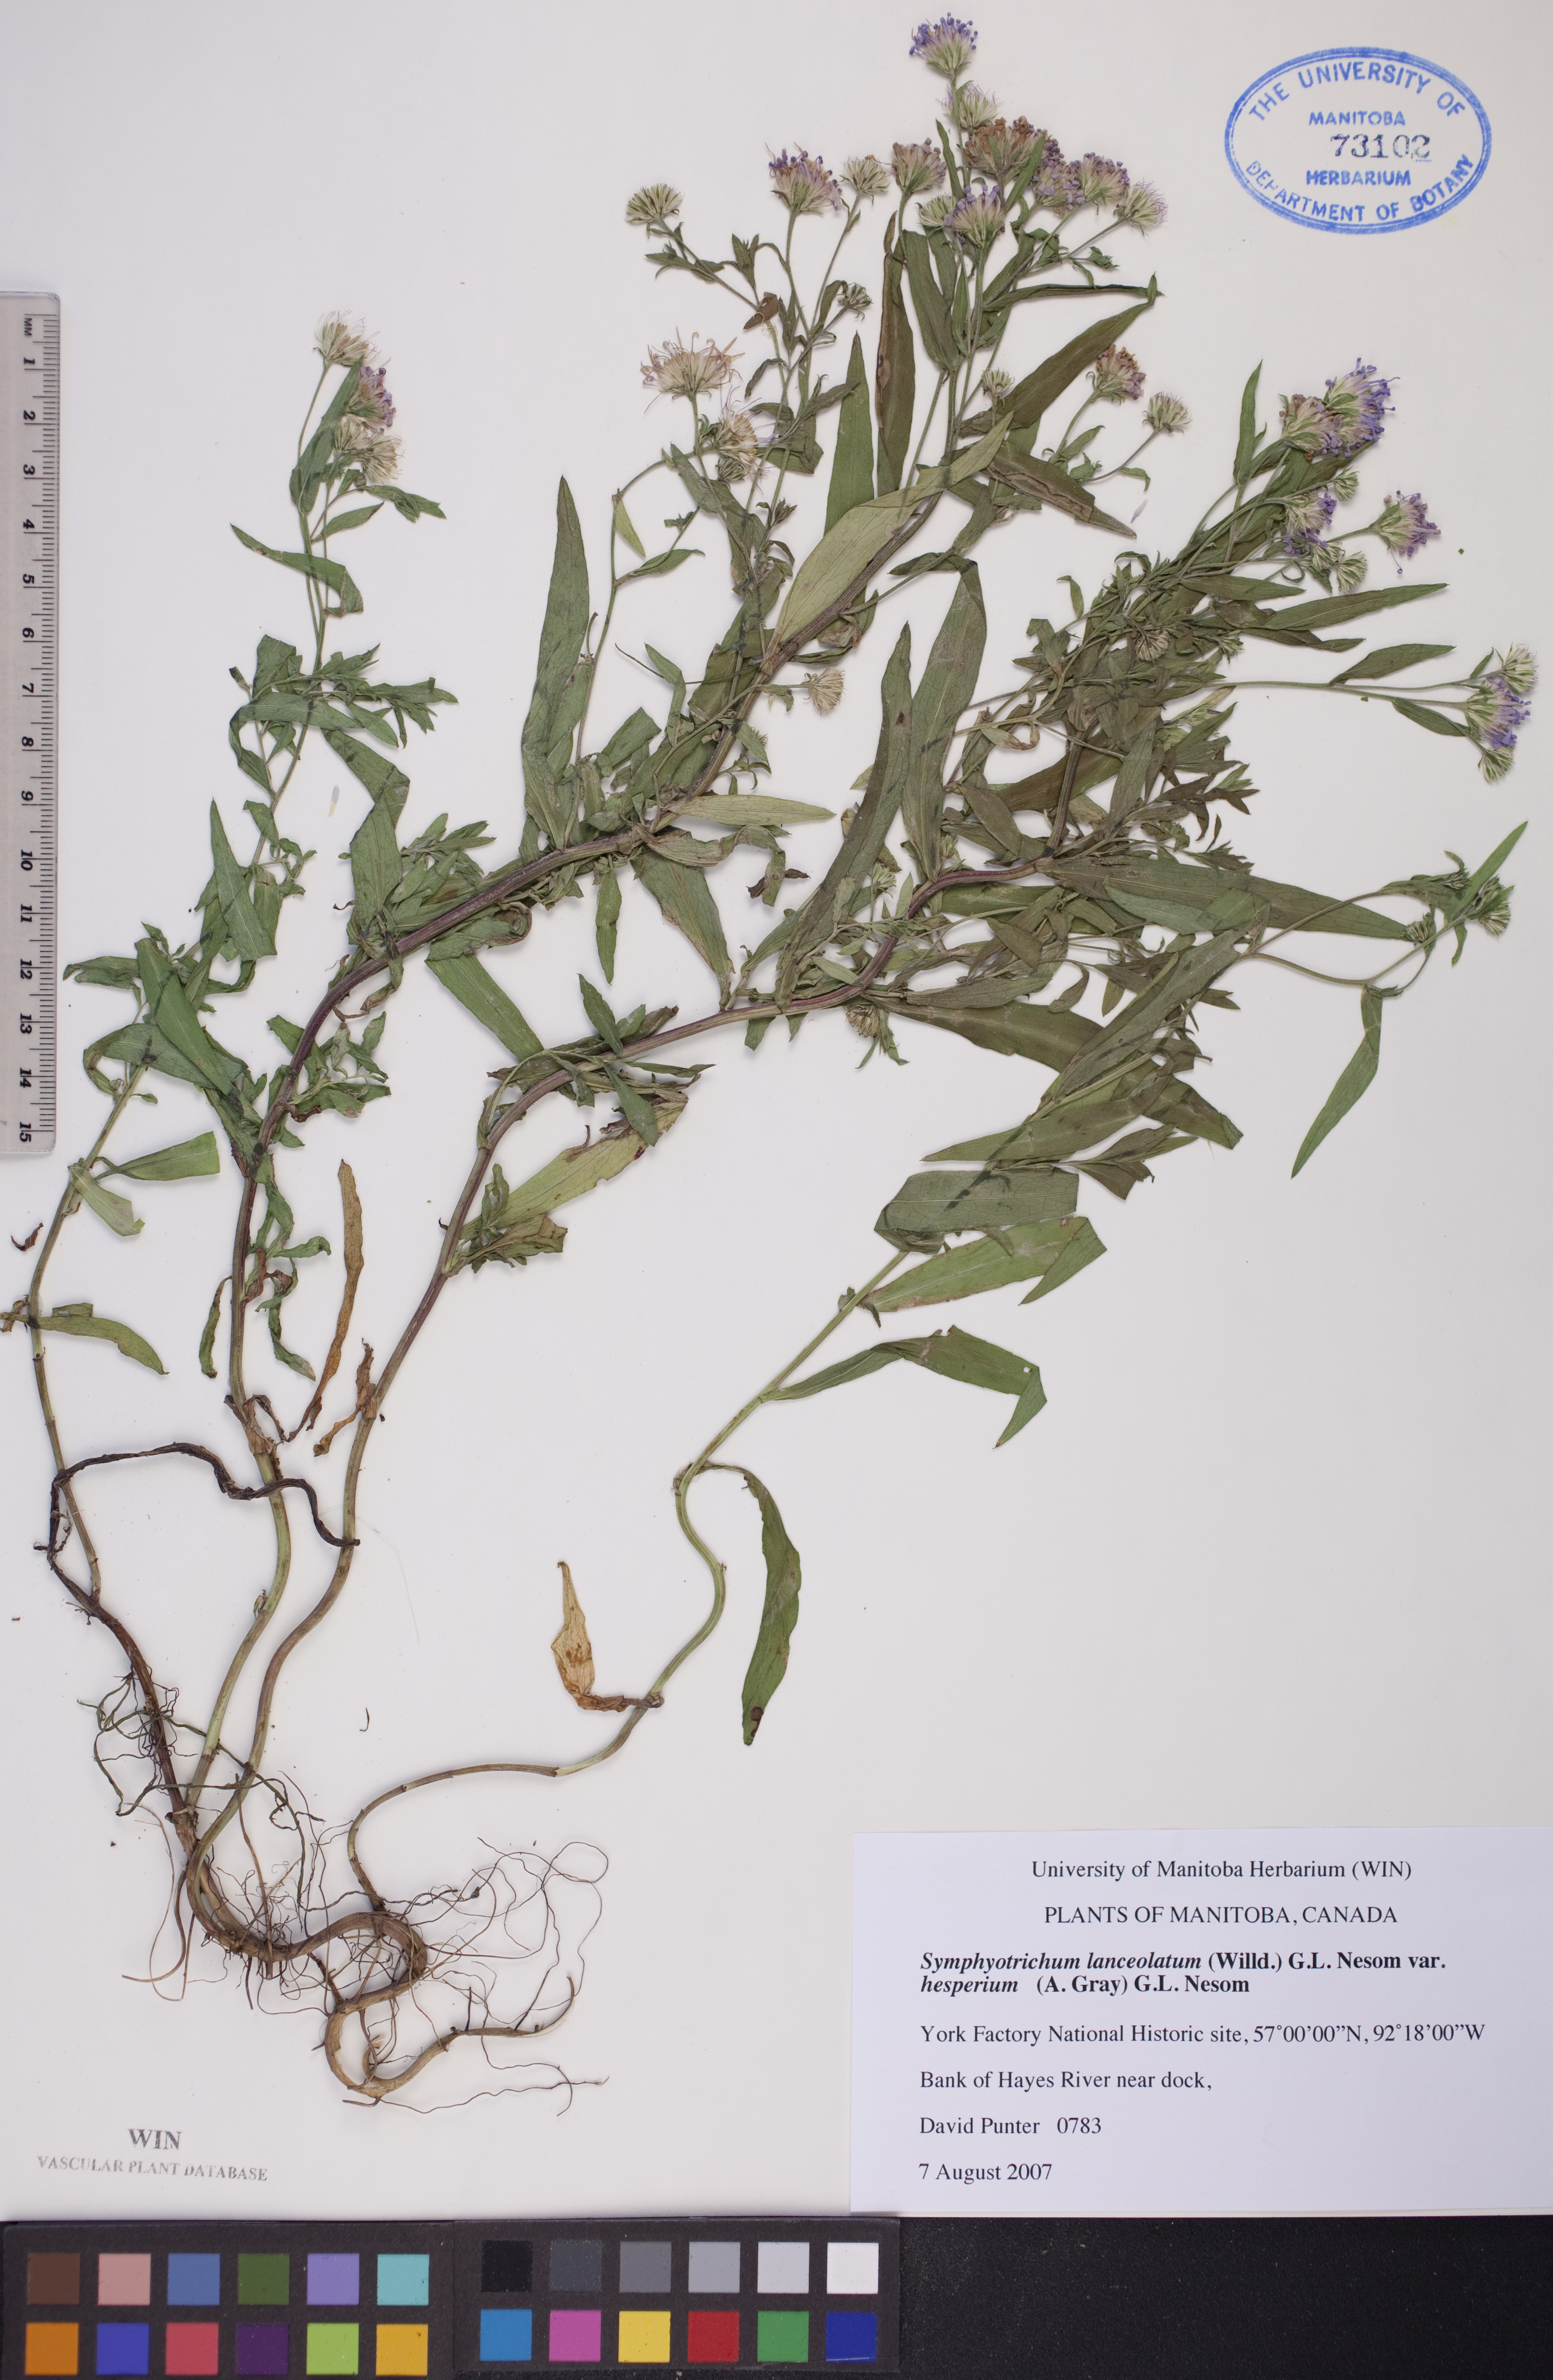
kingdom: Plantae
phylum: Tracheophyta
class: Magnoliopsida
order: Asterales
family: Asteraceae
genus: Symphyotrichum
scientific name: Symphyotrichum lanceolatum
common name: Panicled aster
